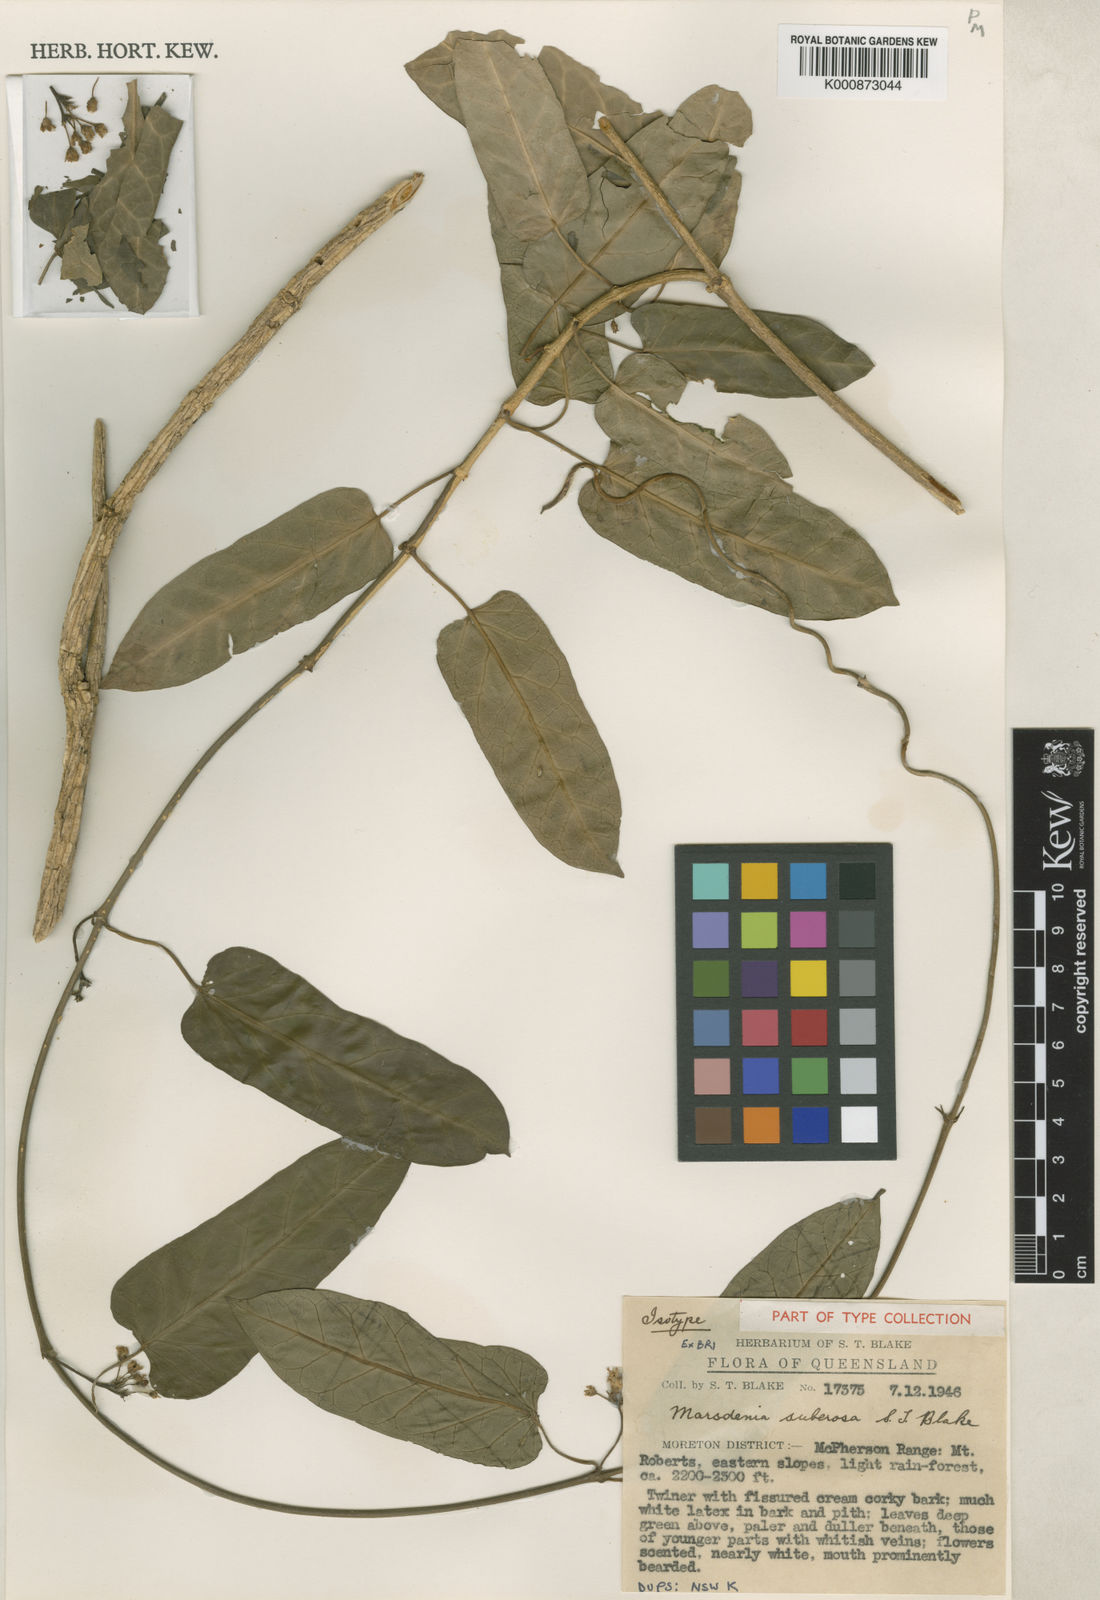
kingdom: Plantae
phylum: Tracheophyta
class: Magnoliopsida
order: Gentianales
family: Apocynaceae
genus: Leichhardtia
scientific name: Leichhardtia lloydii
